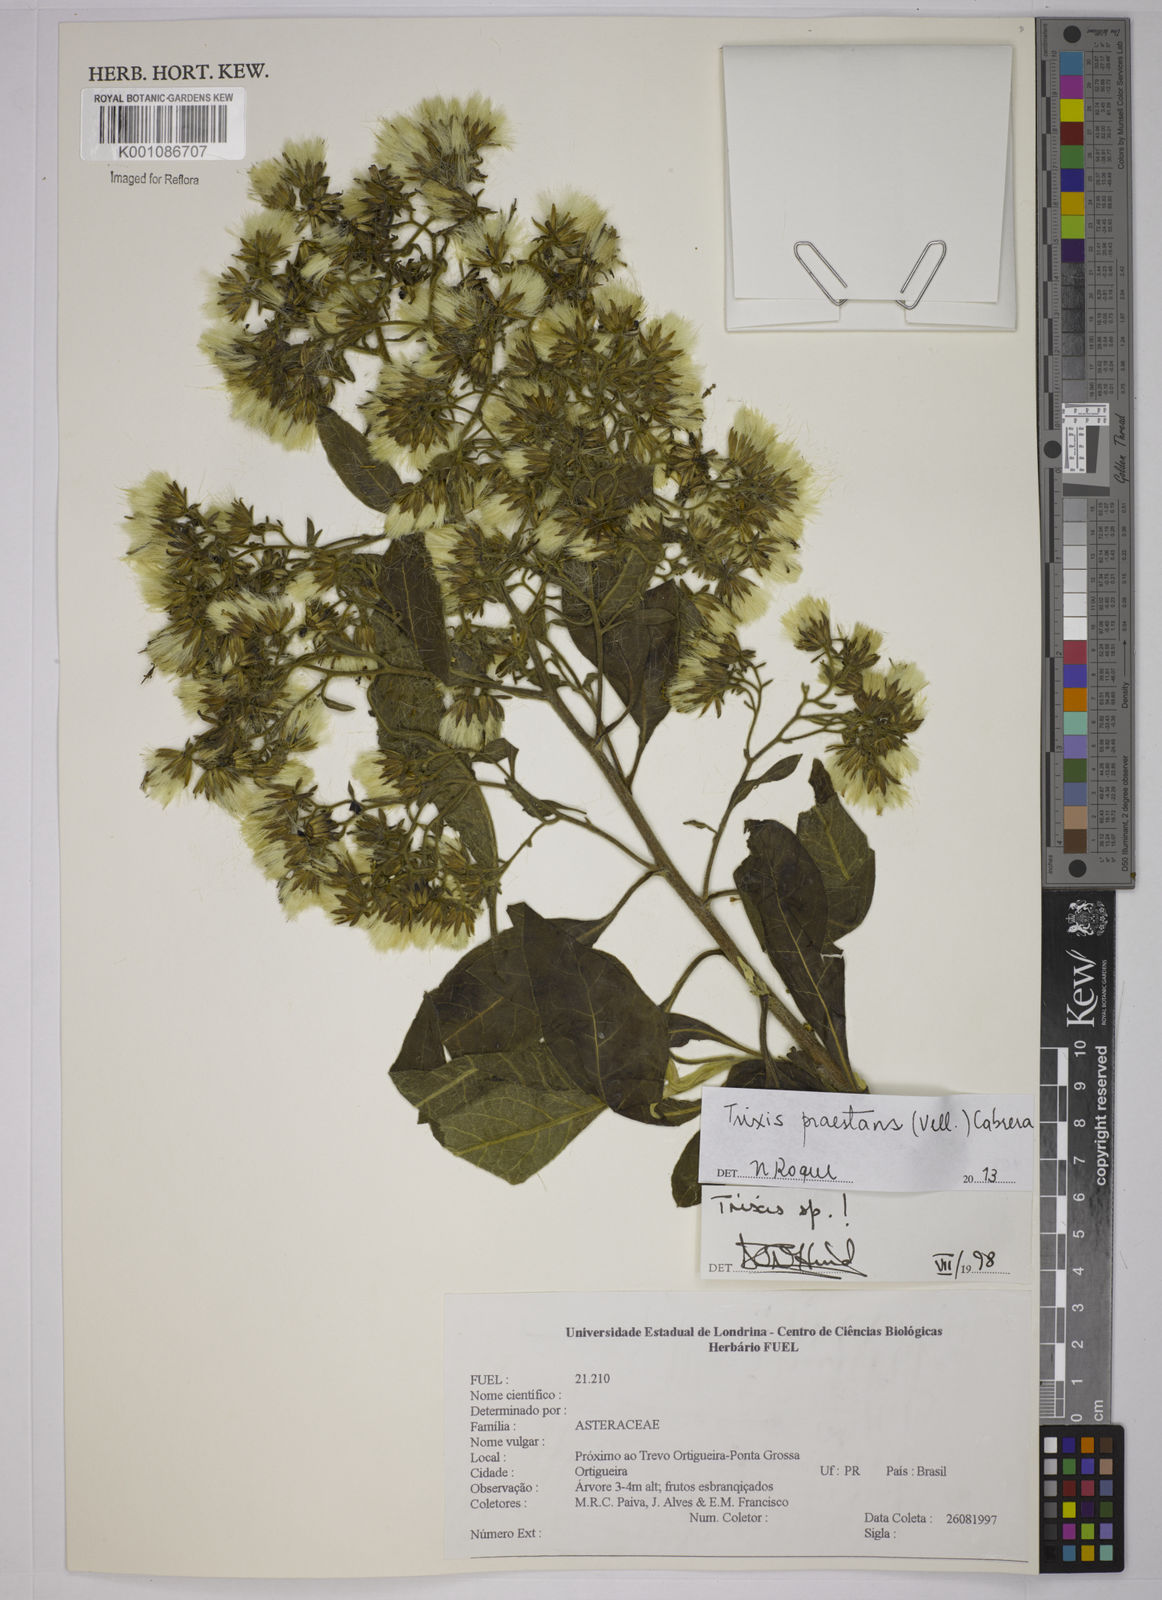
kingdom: Plantae
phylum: Tracheophyta
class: Magnoliopsida
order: Asterales
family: Asteraceae
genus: Trixis
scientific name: Trixis praestans
